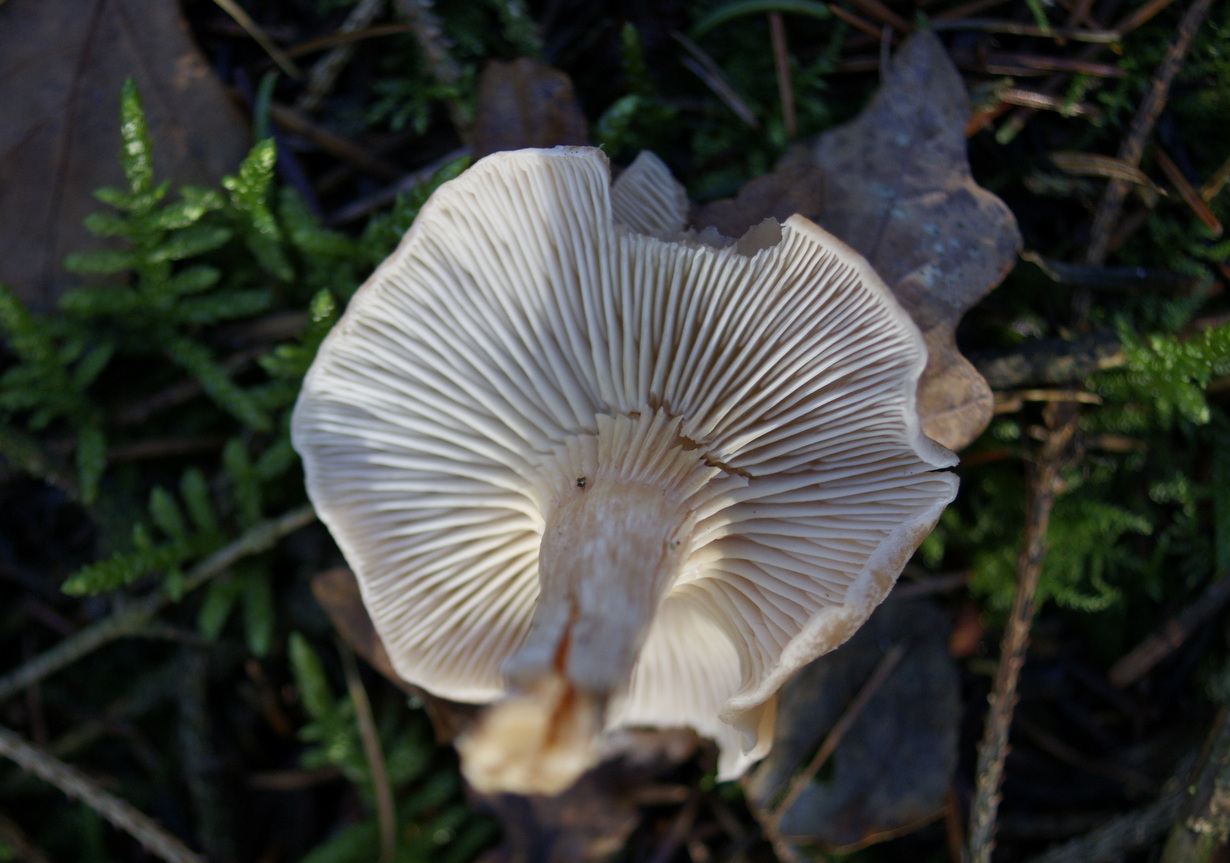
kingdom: Fungi
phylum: Basidiomycota
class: Agaricomycetes
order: Agaricales
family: Tricholomataceae
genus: Clitocybe
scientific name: Clitocybe diatreta
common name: kødfarvet tragthat
